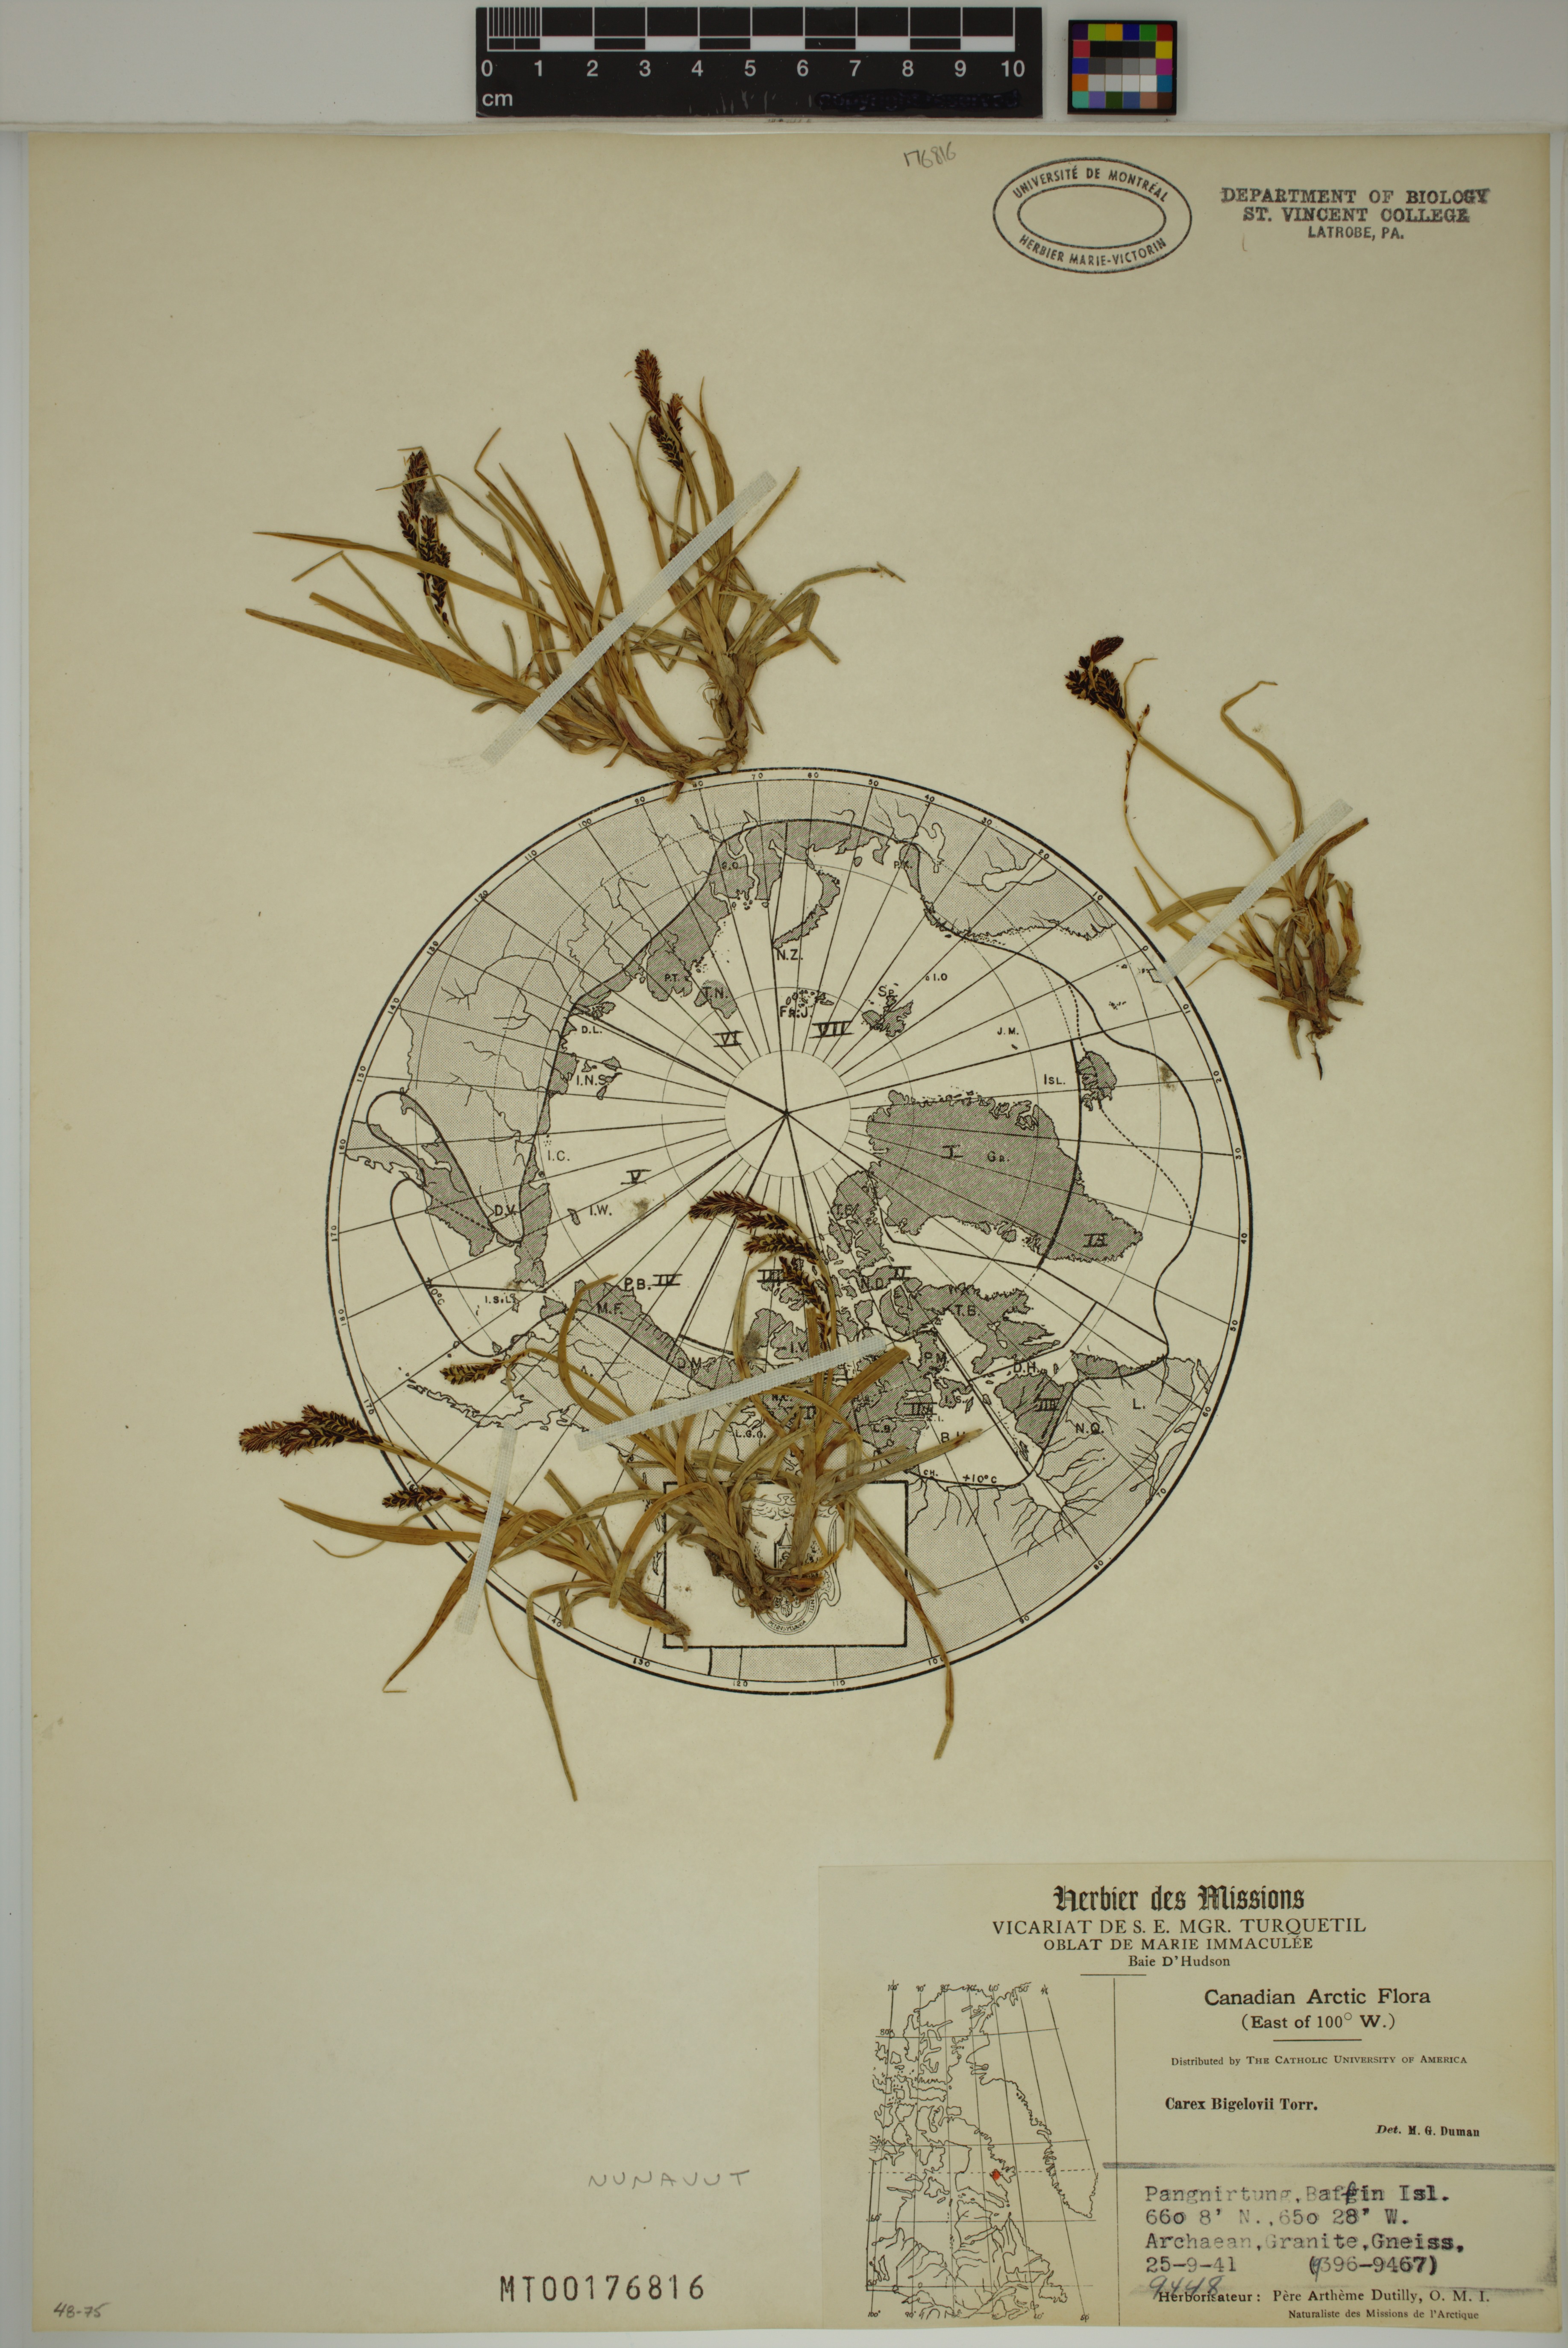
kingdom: Plantae
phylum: Tracheophyta
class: Liliopsida
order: Poales
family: Cyperaceae
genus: Carex
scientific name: Carex bigelowii
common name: Stiff sedge
